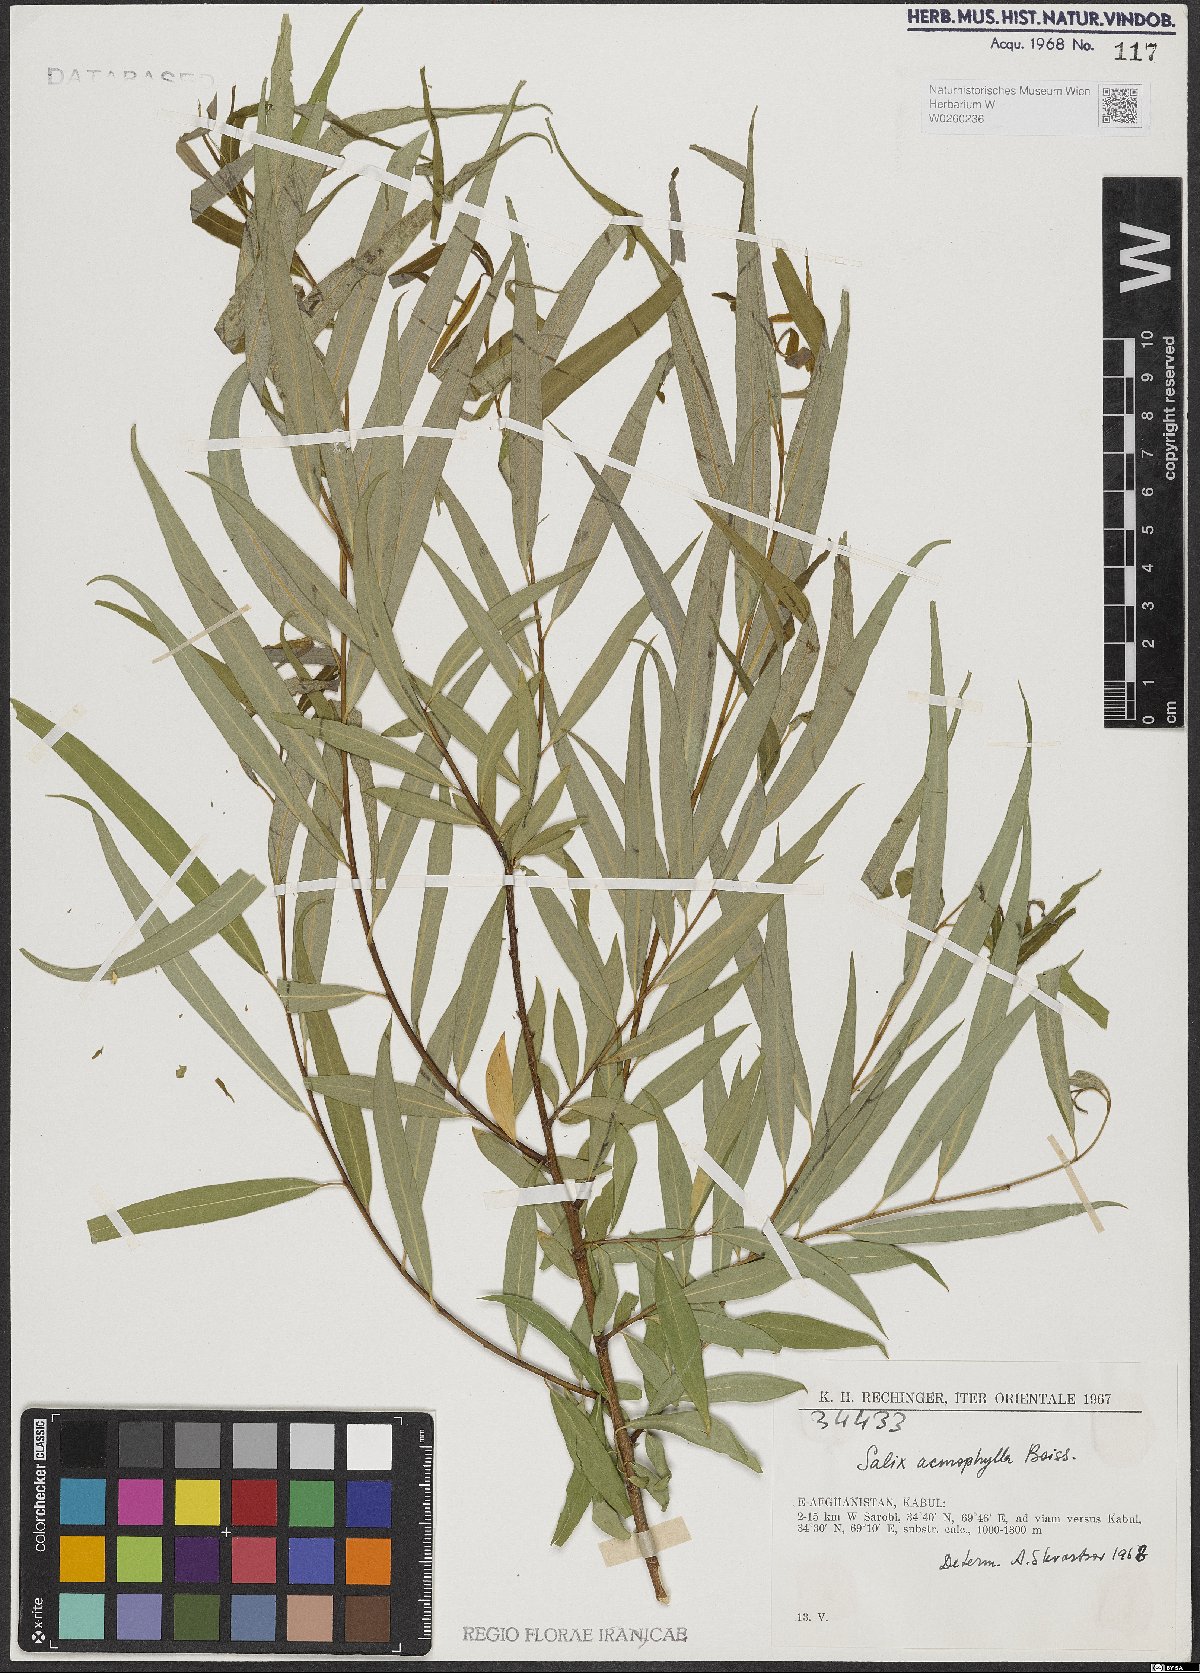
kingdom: Plantae
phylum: Tracheophyta
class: Magnoliopsida
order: Malpighiales
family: Salicaceae
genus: Salix
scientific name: Salix acmophylla
